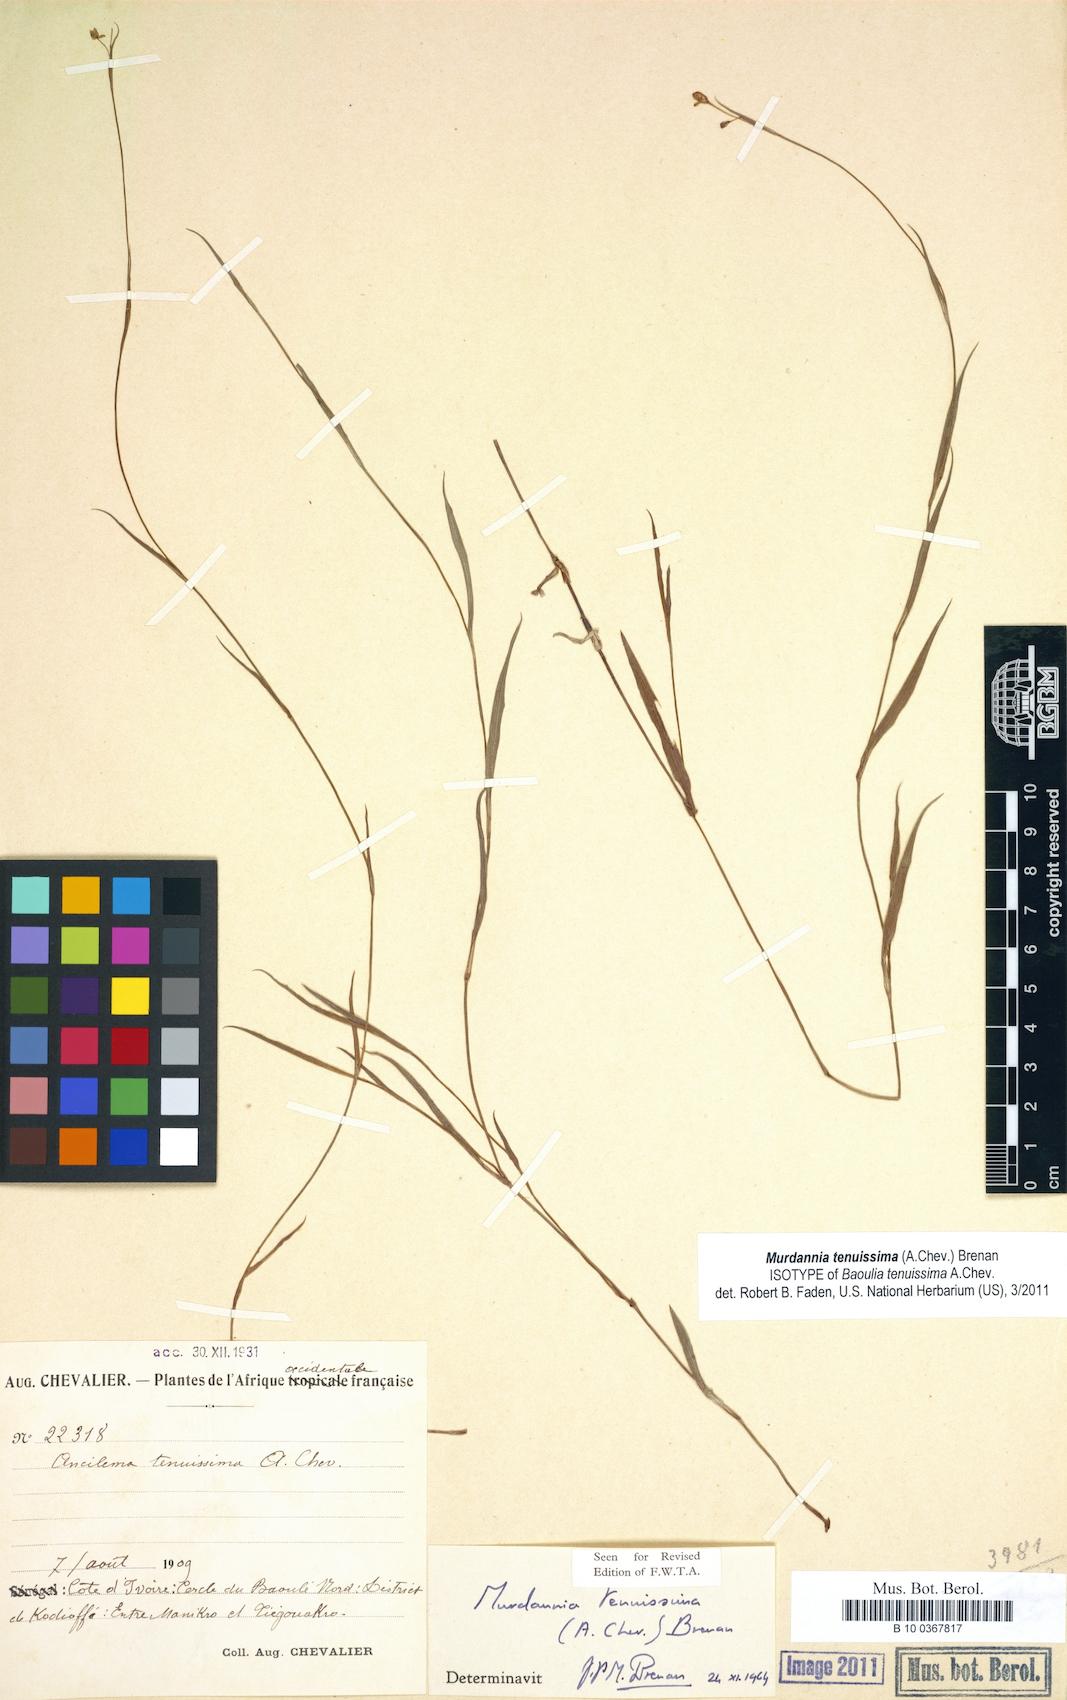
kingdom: Plantae
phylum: Tracheophyta
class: Liliopsida
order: Commelinales
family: Commelinaceae
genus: Murdannia
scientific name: Murdannia tenuissima
